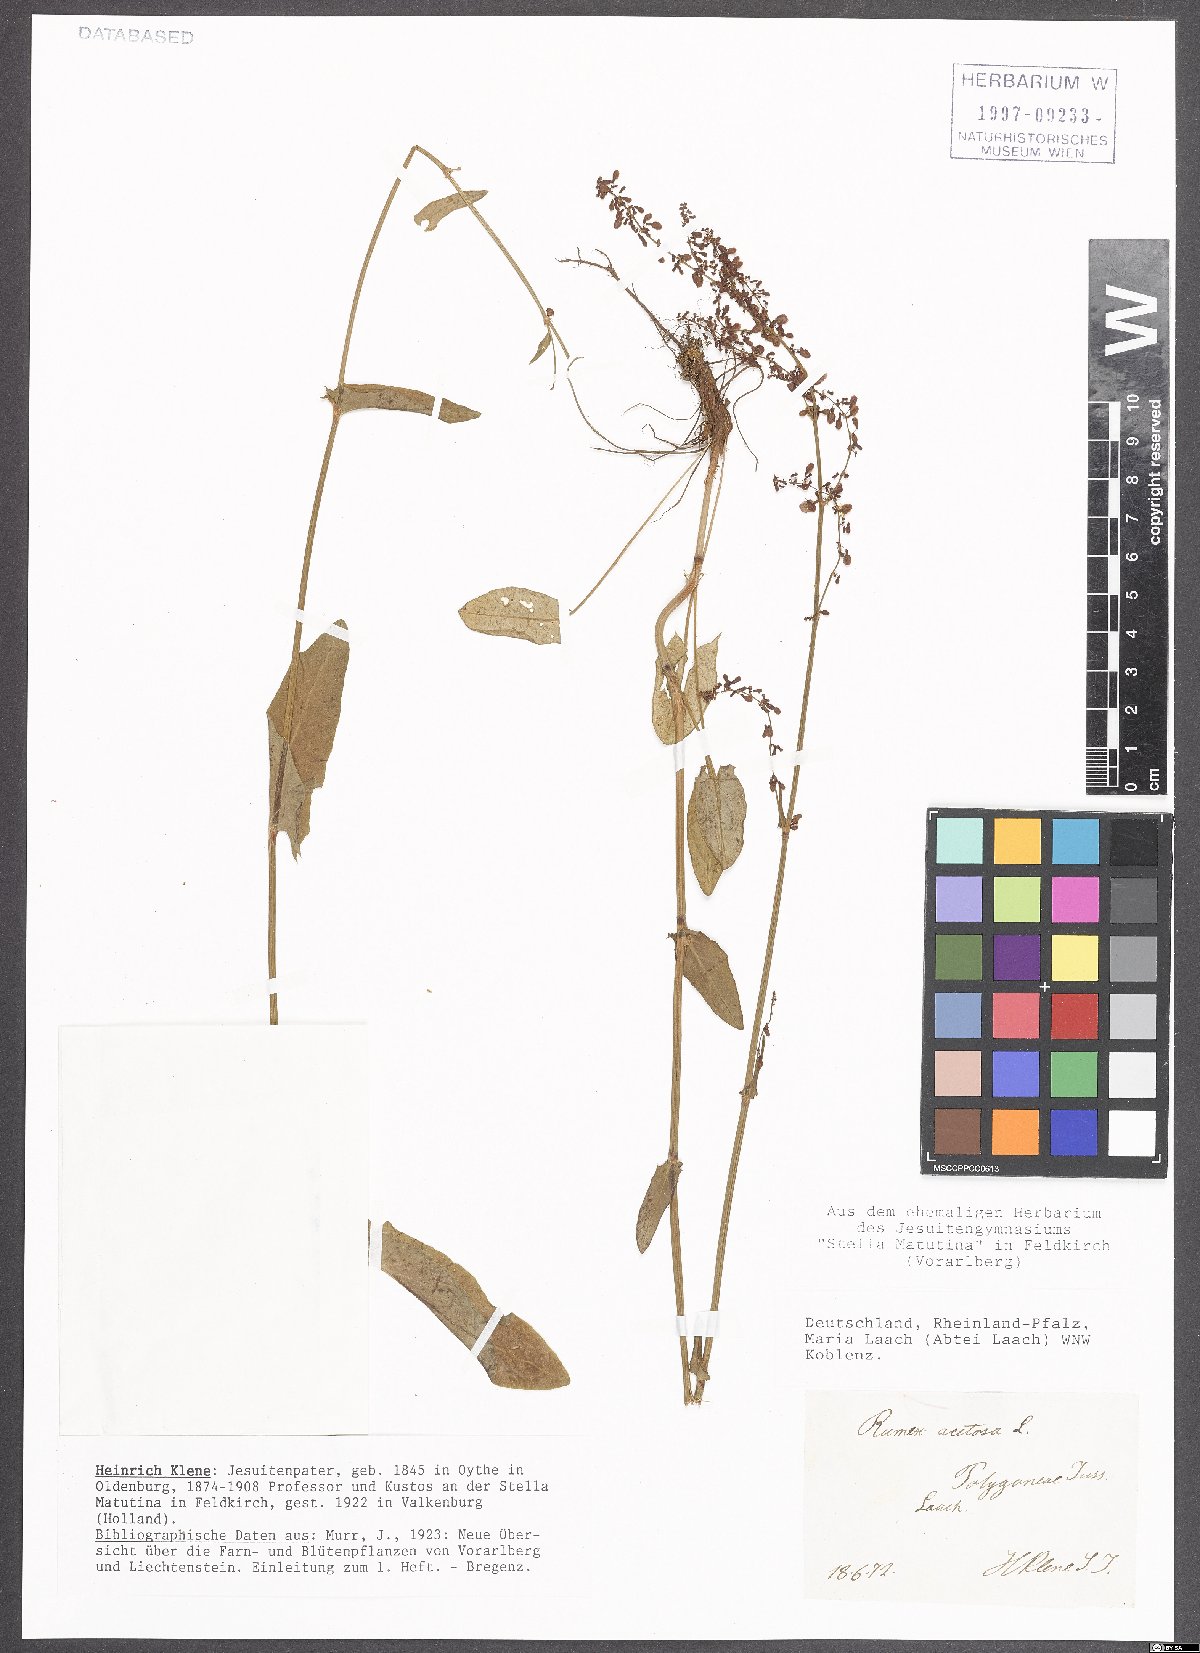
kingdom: Plantae
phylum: Tracheophyta
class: Magnoliopsida
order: Caryophyllales
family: Polygonaceae
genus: Rumex
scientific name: Rumex acetosa
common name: Garden sorrel
